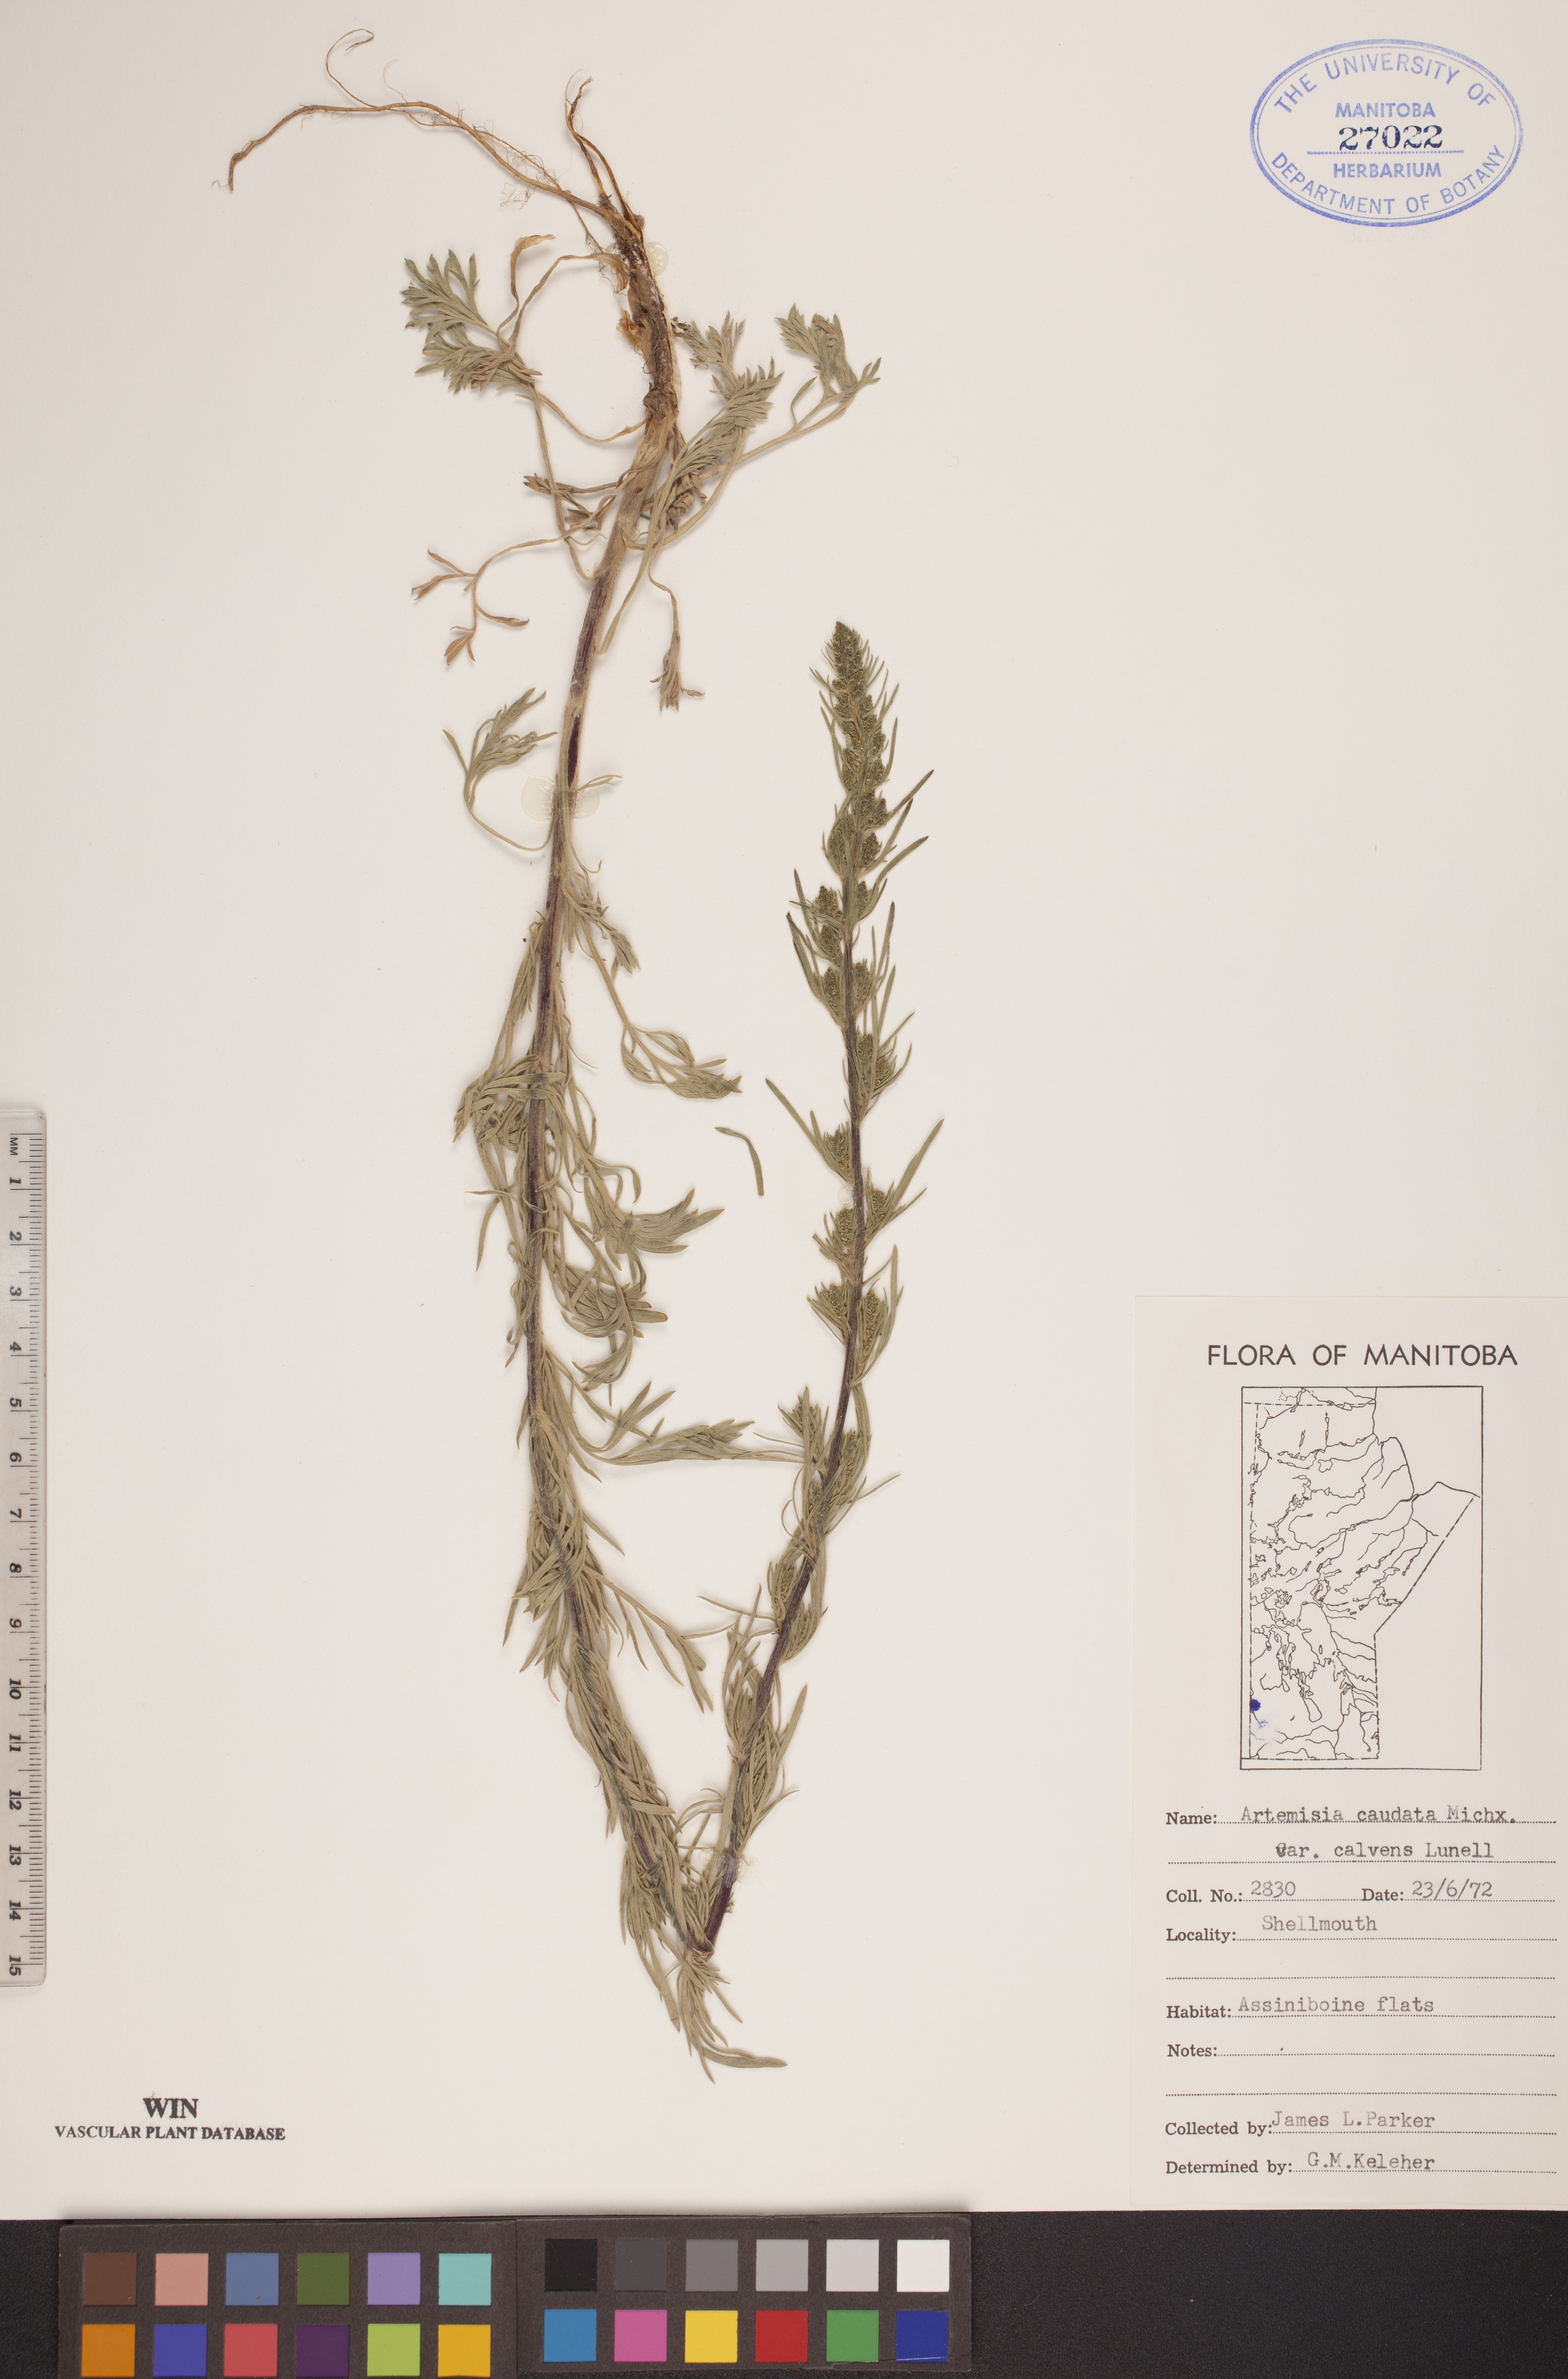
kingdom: Plantae
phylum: Tracheophyta
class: Magnoliopsida
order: Asterales
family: Asteraceae
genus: Artemisia
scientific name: Artemisia campestris
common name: Field wormwood
